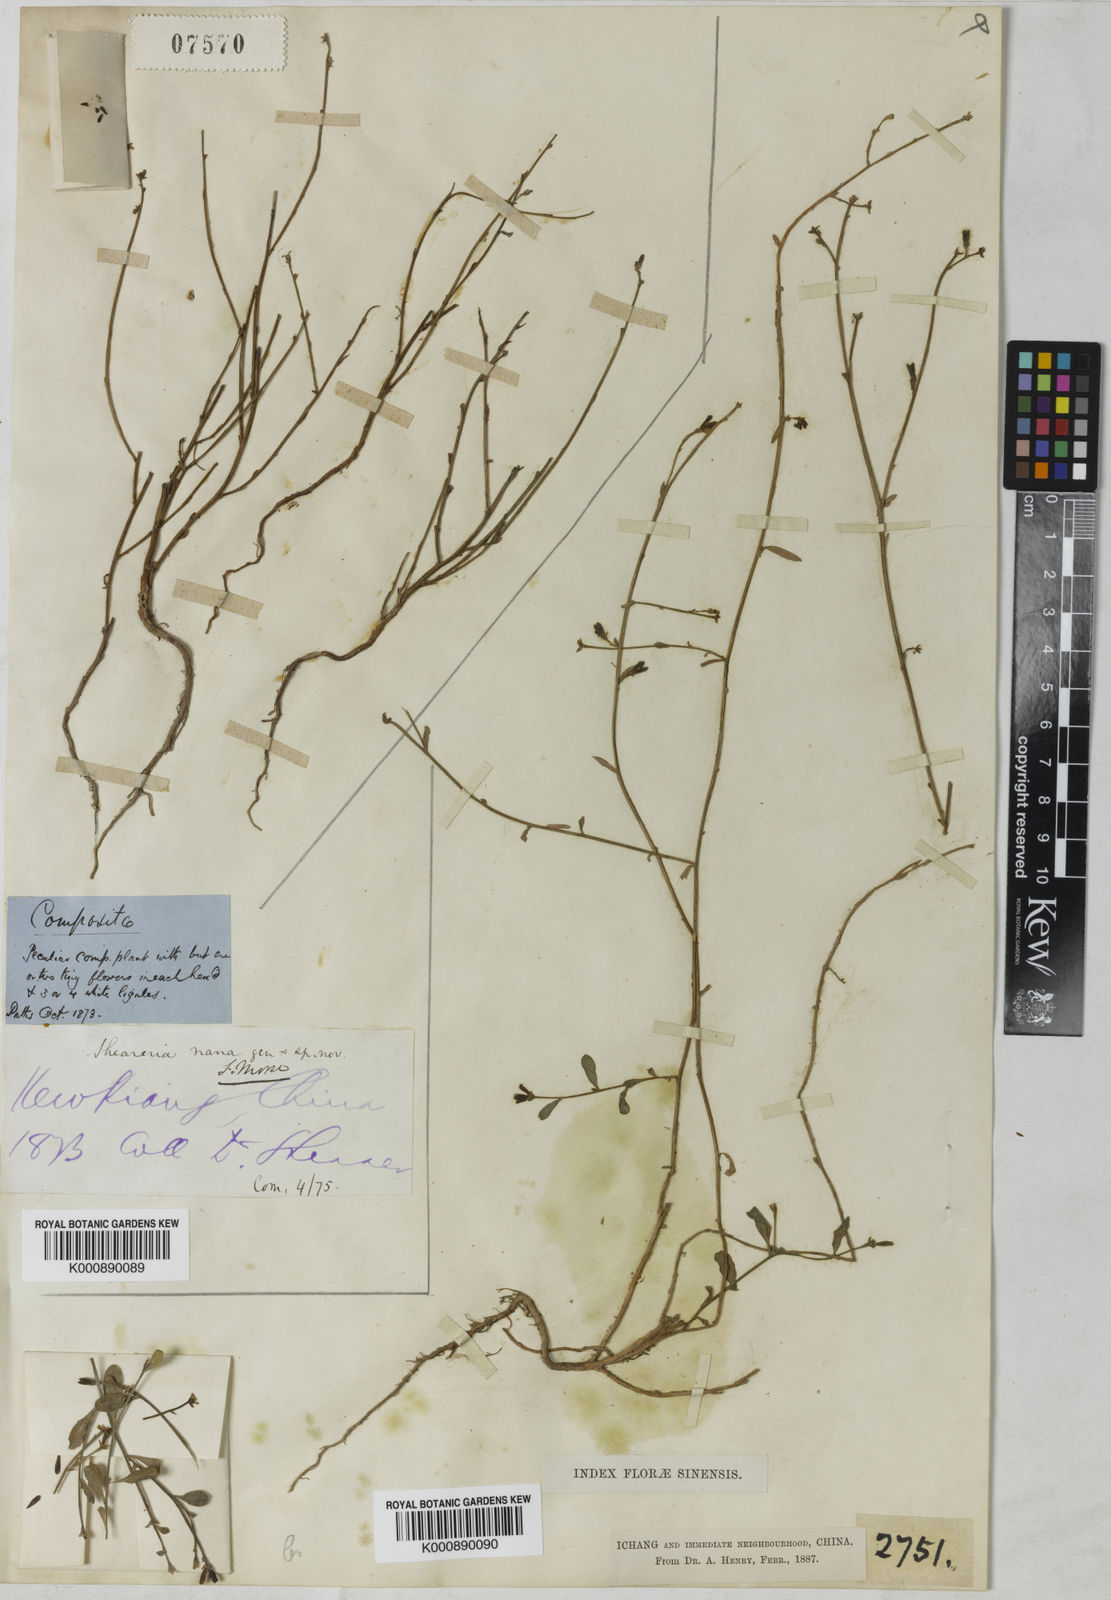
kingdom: Plantae
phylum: Tracheophyta
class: Magnoliopsida
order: Asterales
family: Asteraceae
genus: Sheareria
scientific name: Sheareria nana
